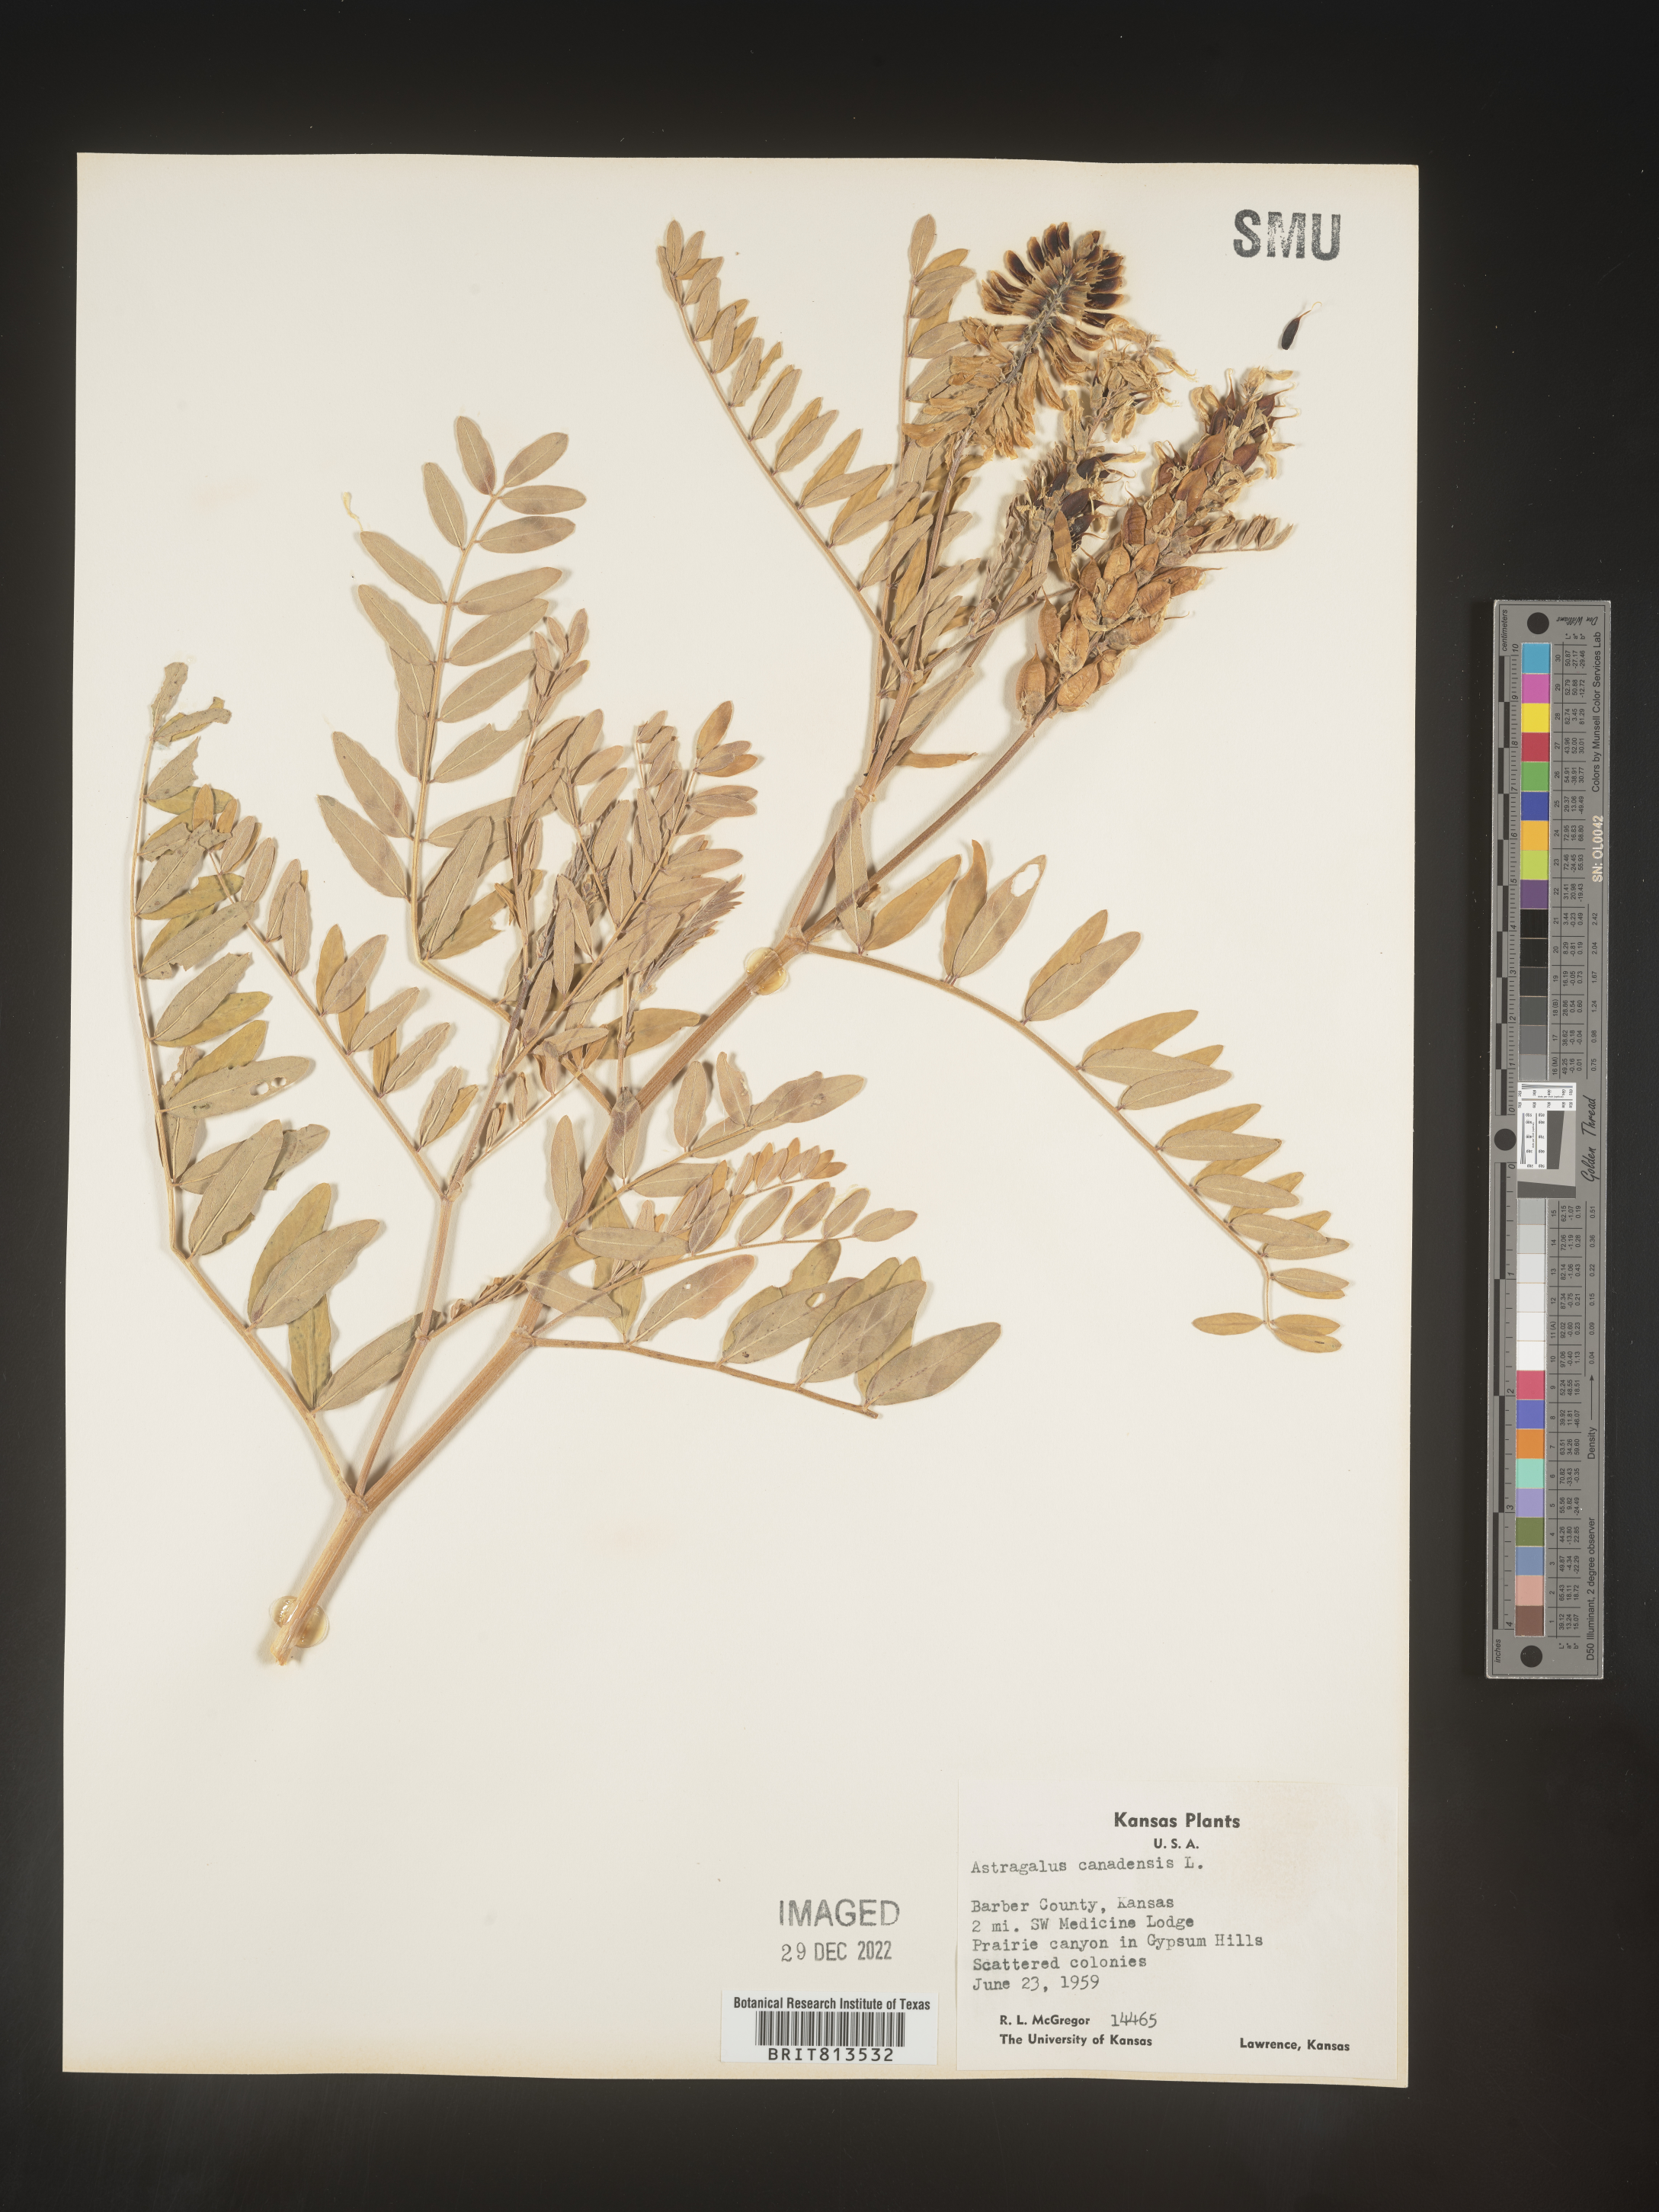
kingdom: Plantae
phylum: Tracheophyta
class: Magnoliopsida
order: Fabales
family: Fabaceae
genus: Astragalus
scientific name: Astragalus canadensis
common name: Canada milk-vetch
